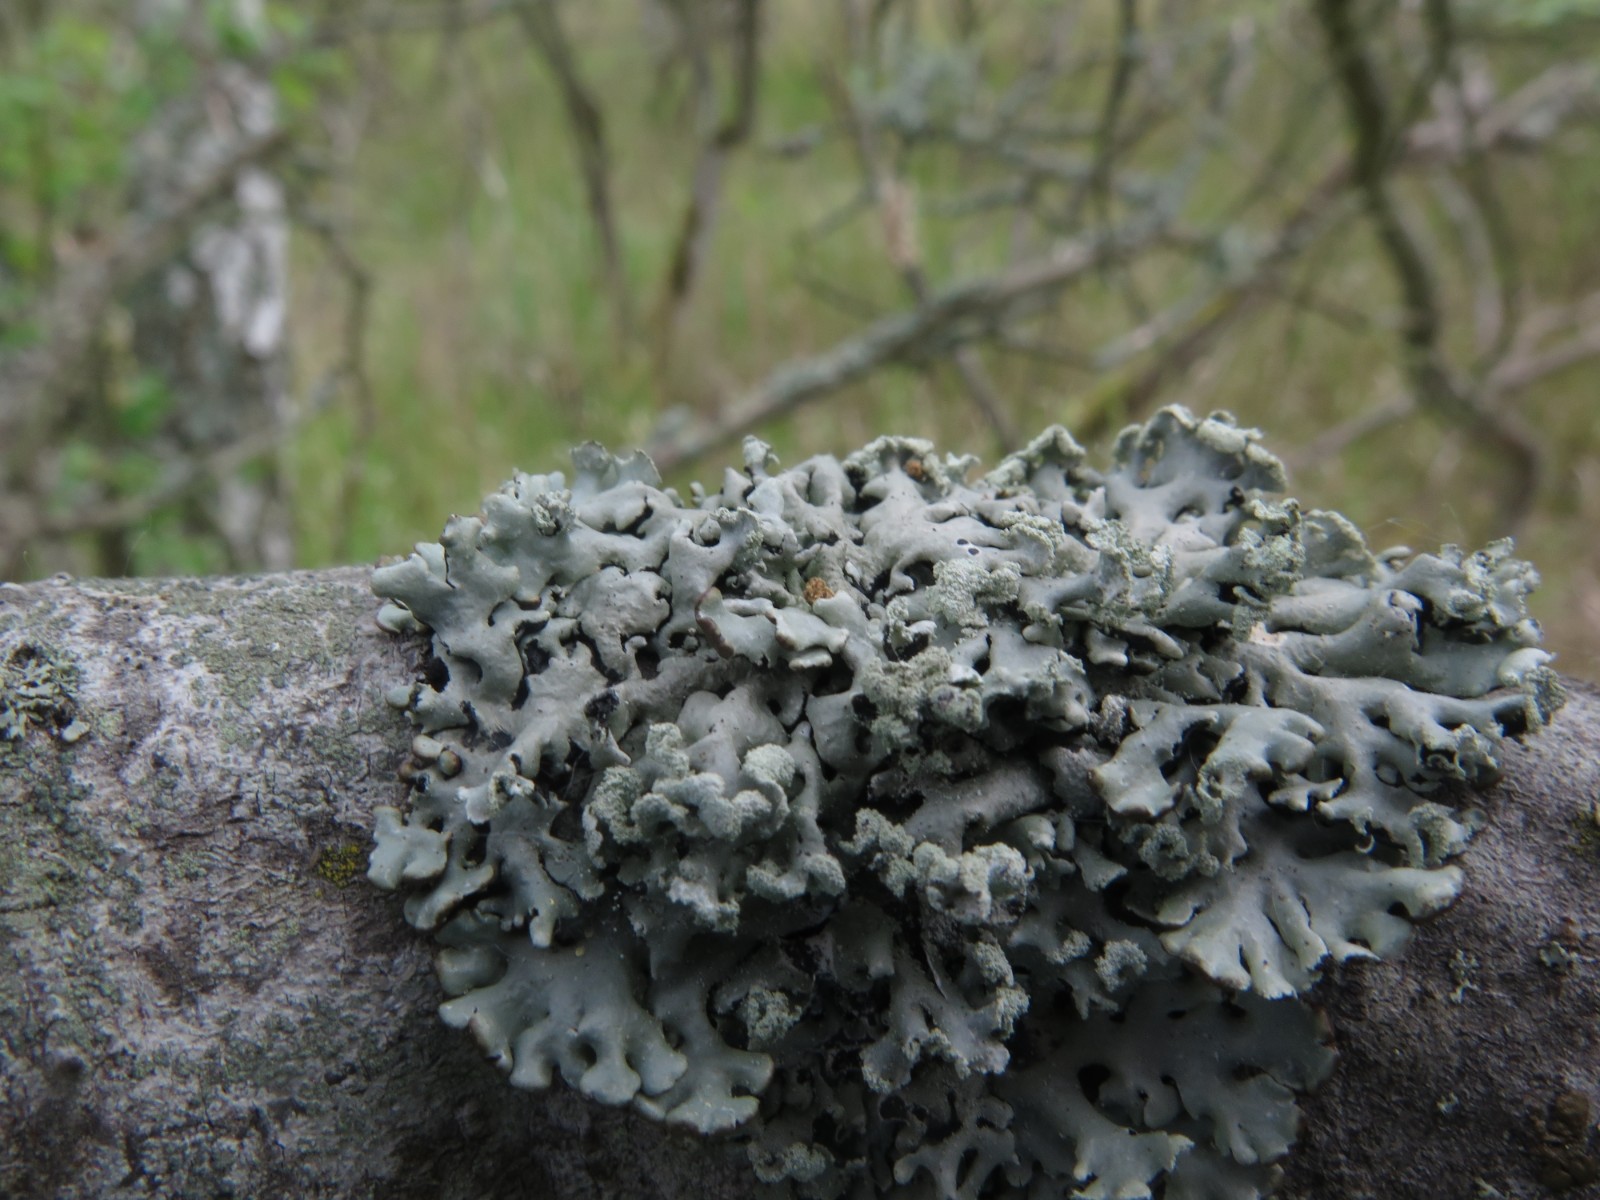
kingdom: Fungi
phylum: Ascomycota
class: Lecanoromycetes
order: Lecanorales
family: Parmeliaceae
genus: Hypogymnia
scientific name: Hypogymnia physodes
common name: almindelig kvistlav
